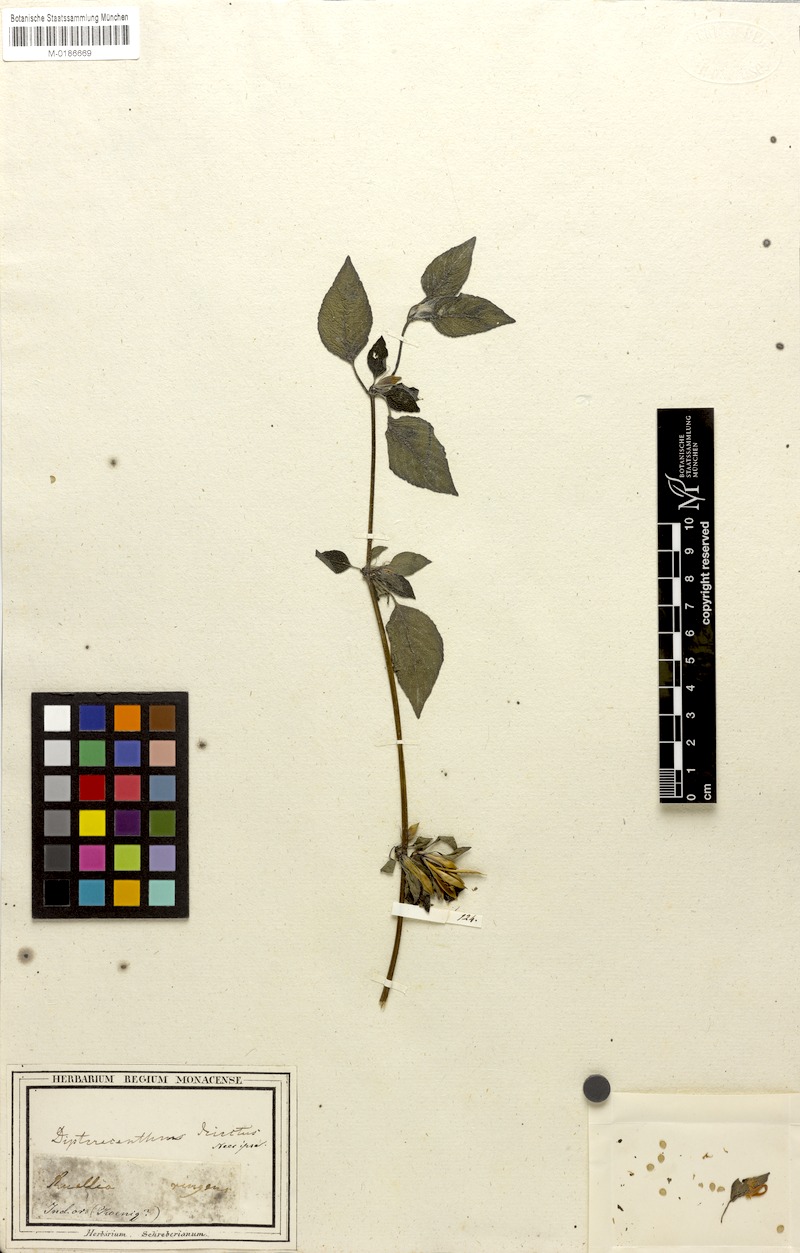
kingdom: Plantae
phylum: Tracheophyta
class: Magnoliopsida
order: Lamiales
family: Acanthaceae
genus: Hygrophila
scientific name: Hygrophila ringens
